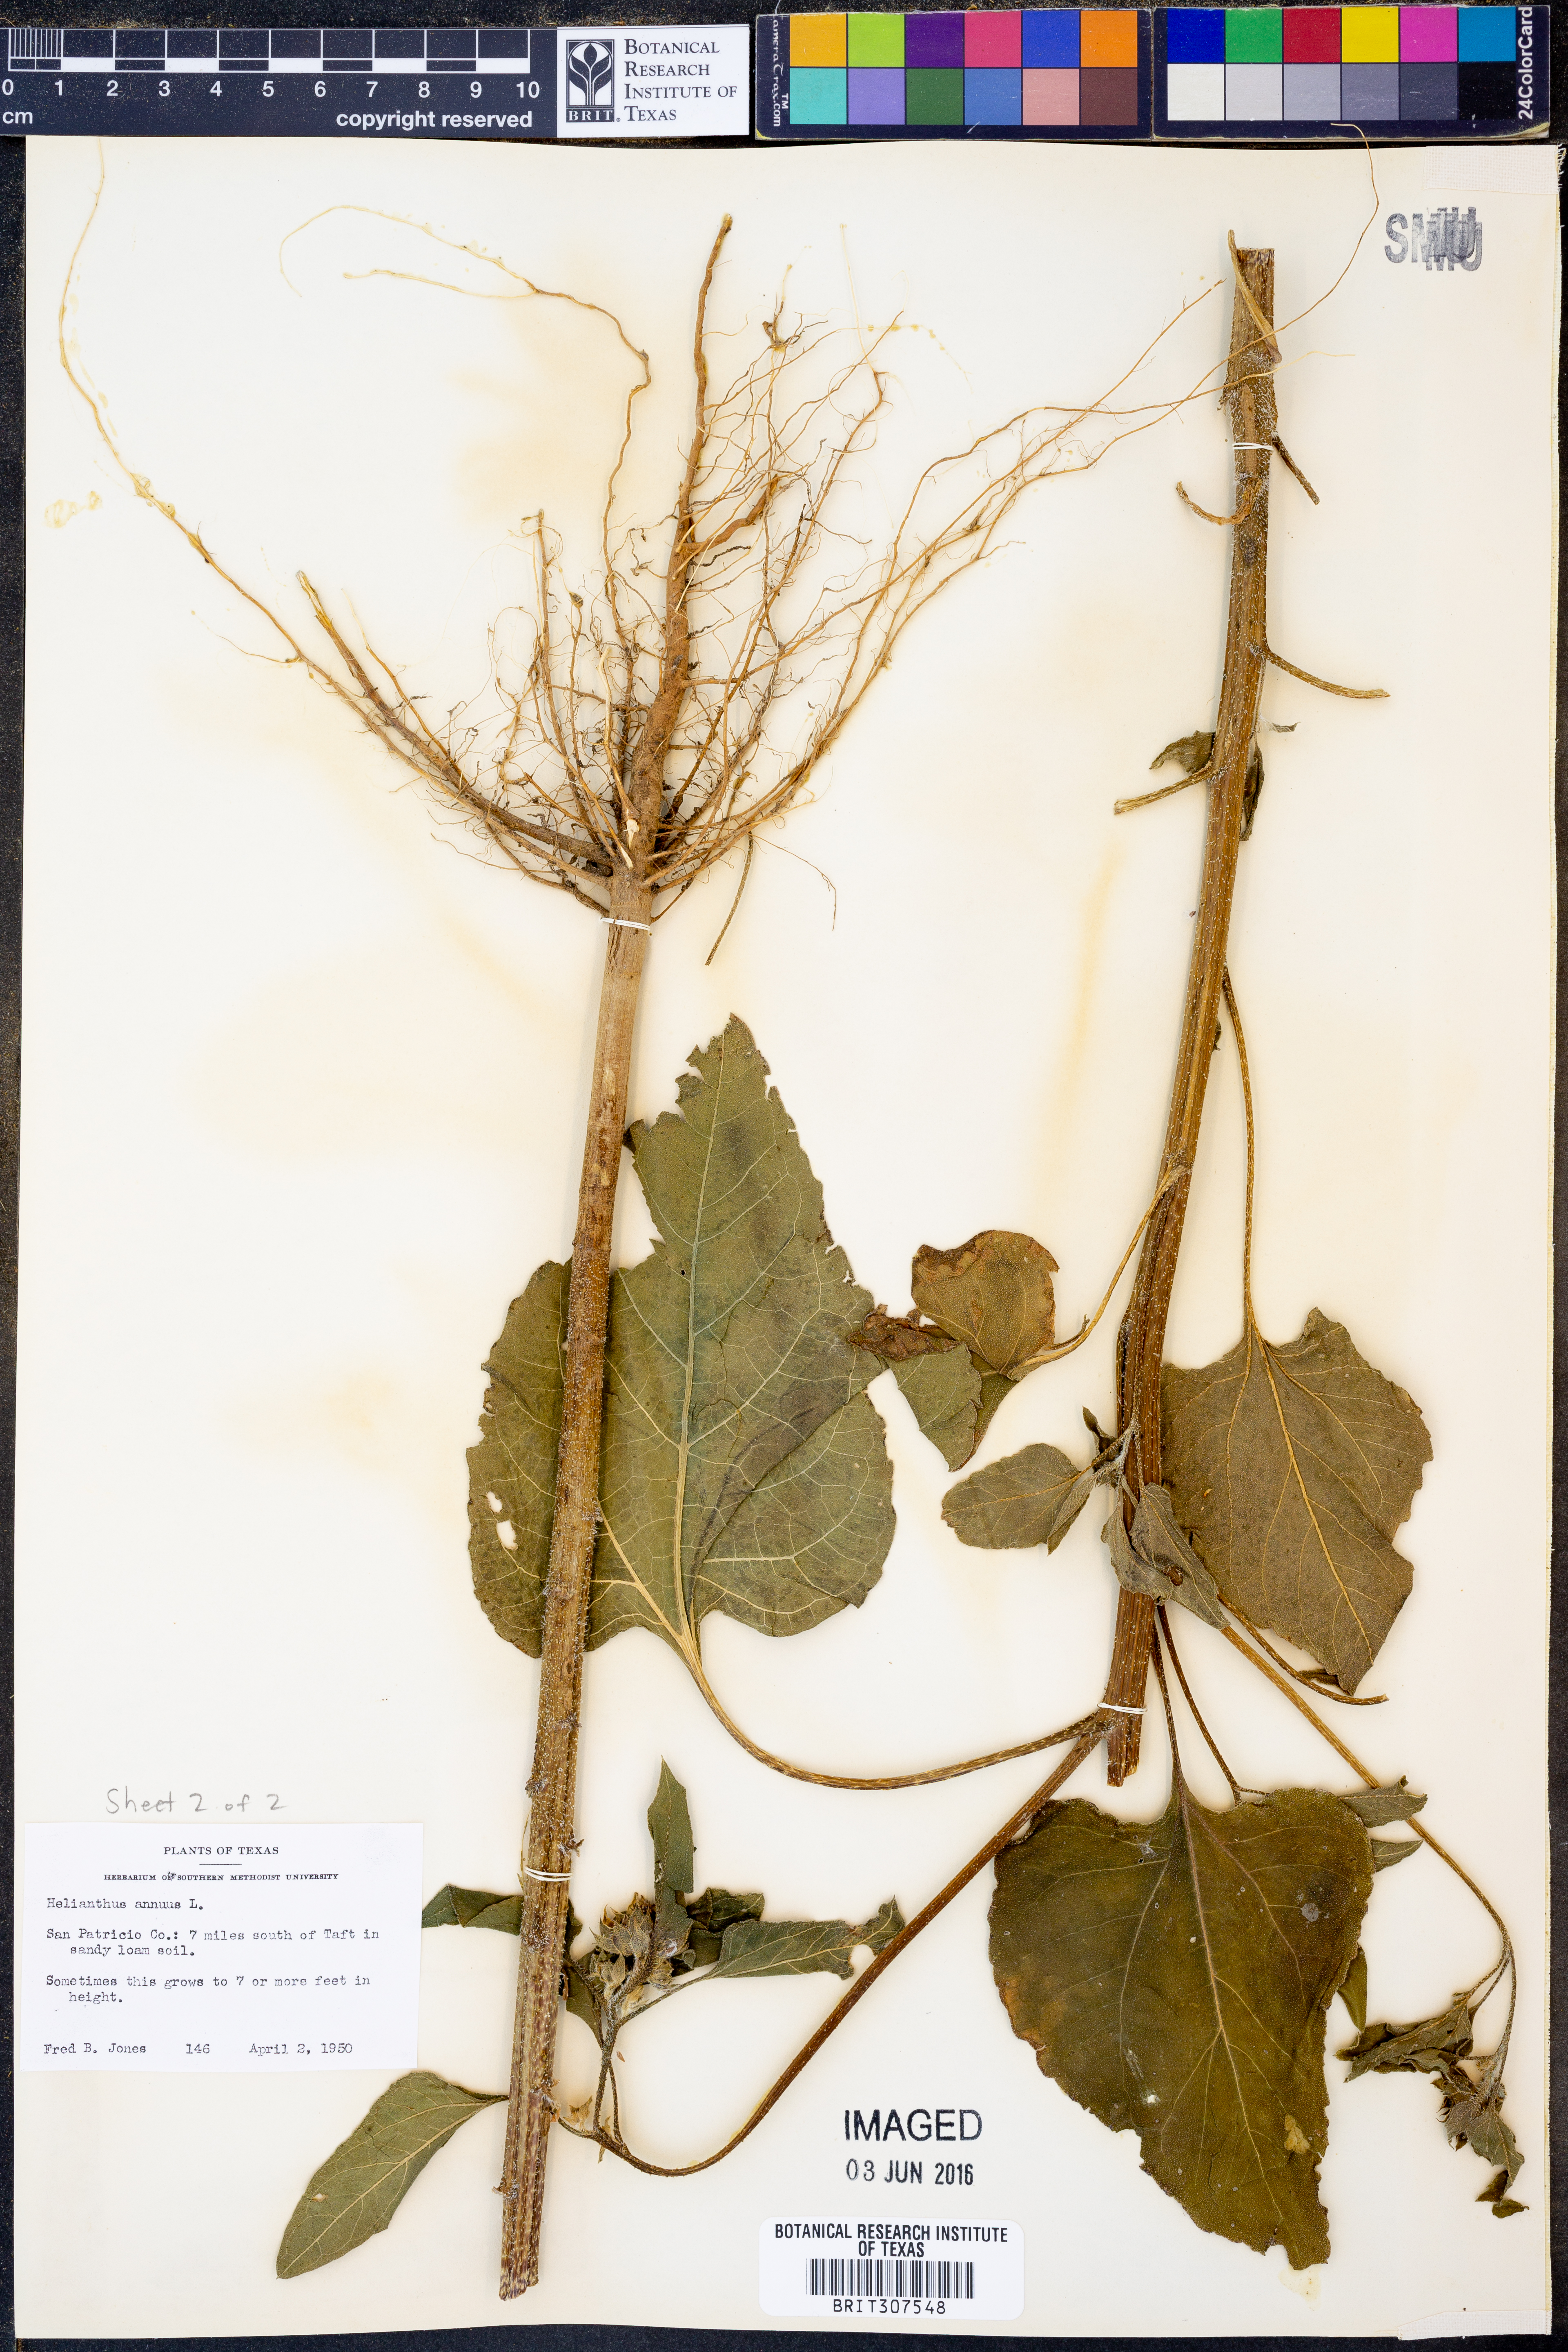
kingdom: Plantae
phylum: Tracheophyta
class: Magnoliopsida
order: Asterales
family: Asteraceae
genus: Helianthus
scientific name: Helianthus annuus
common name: Sunflower
